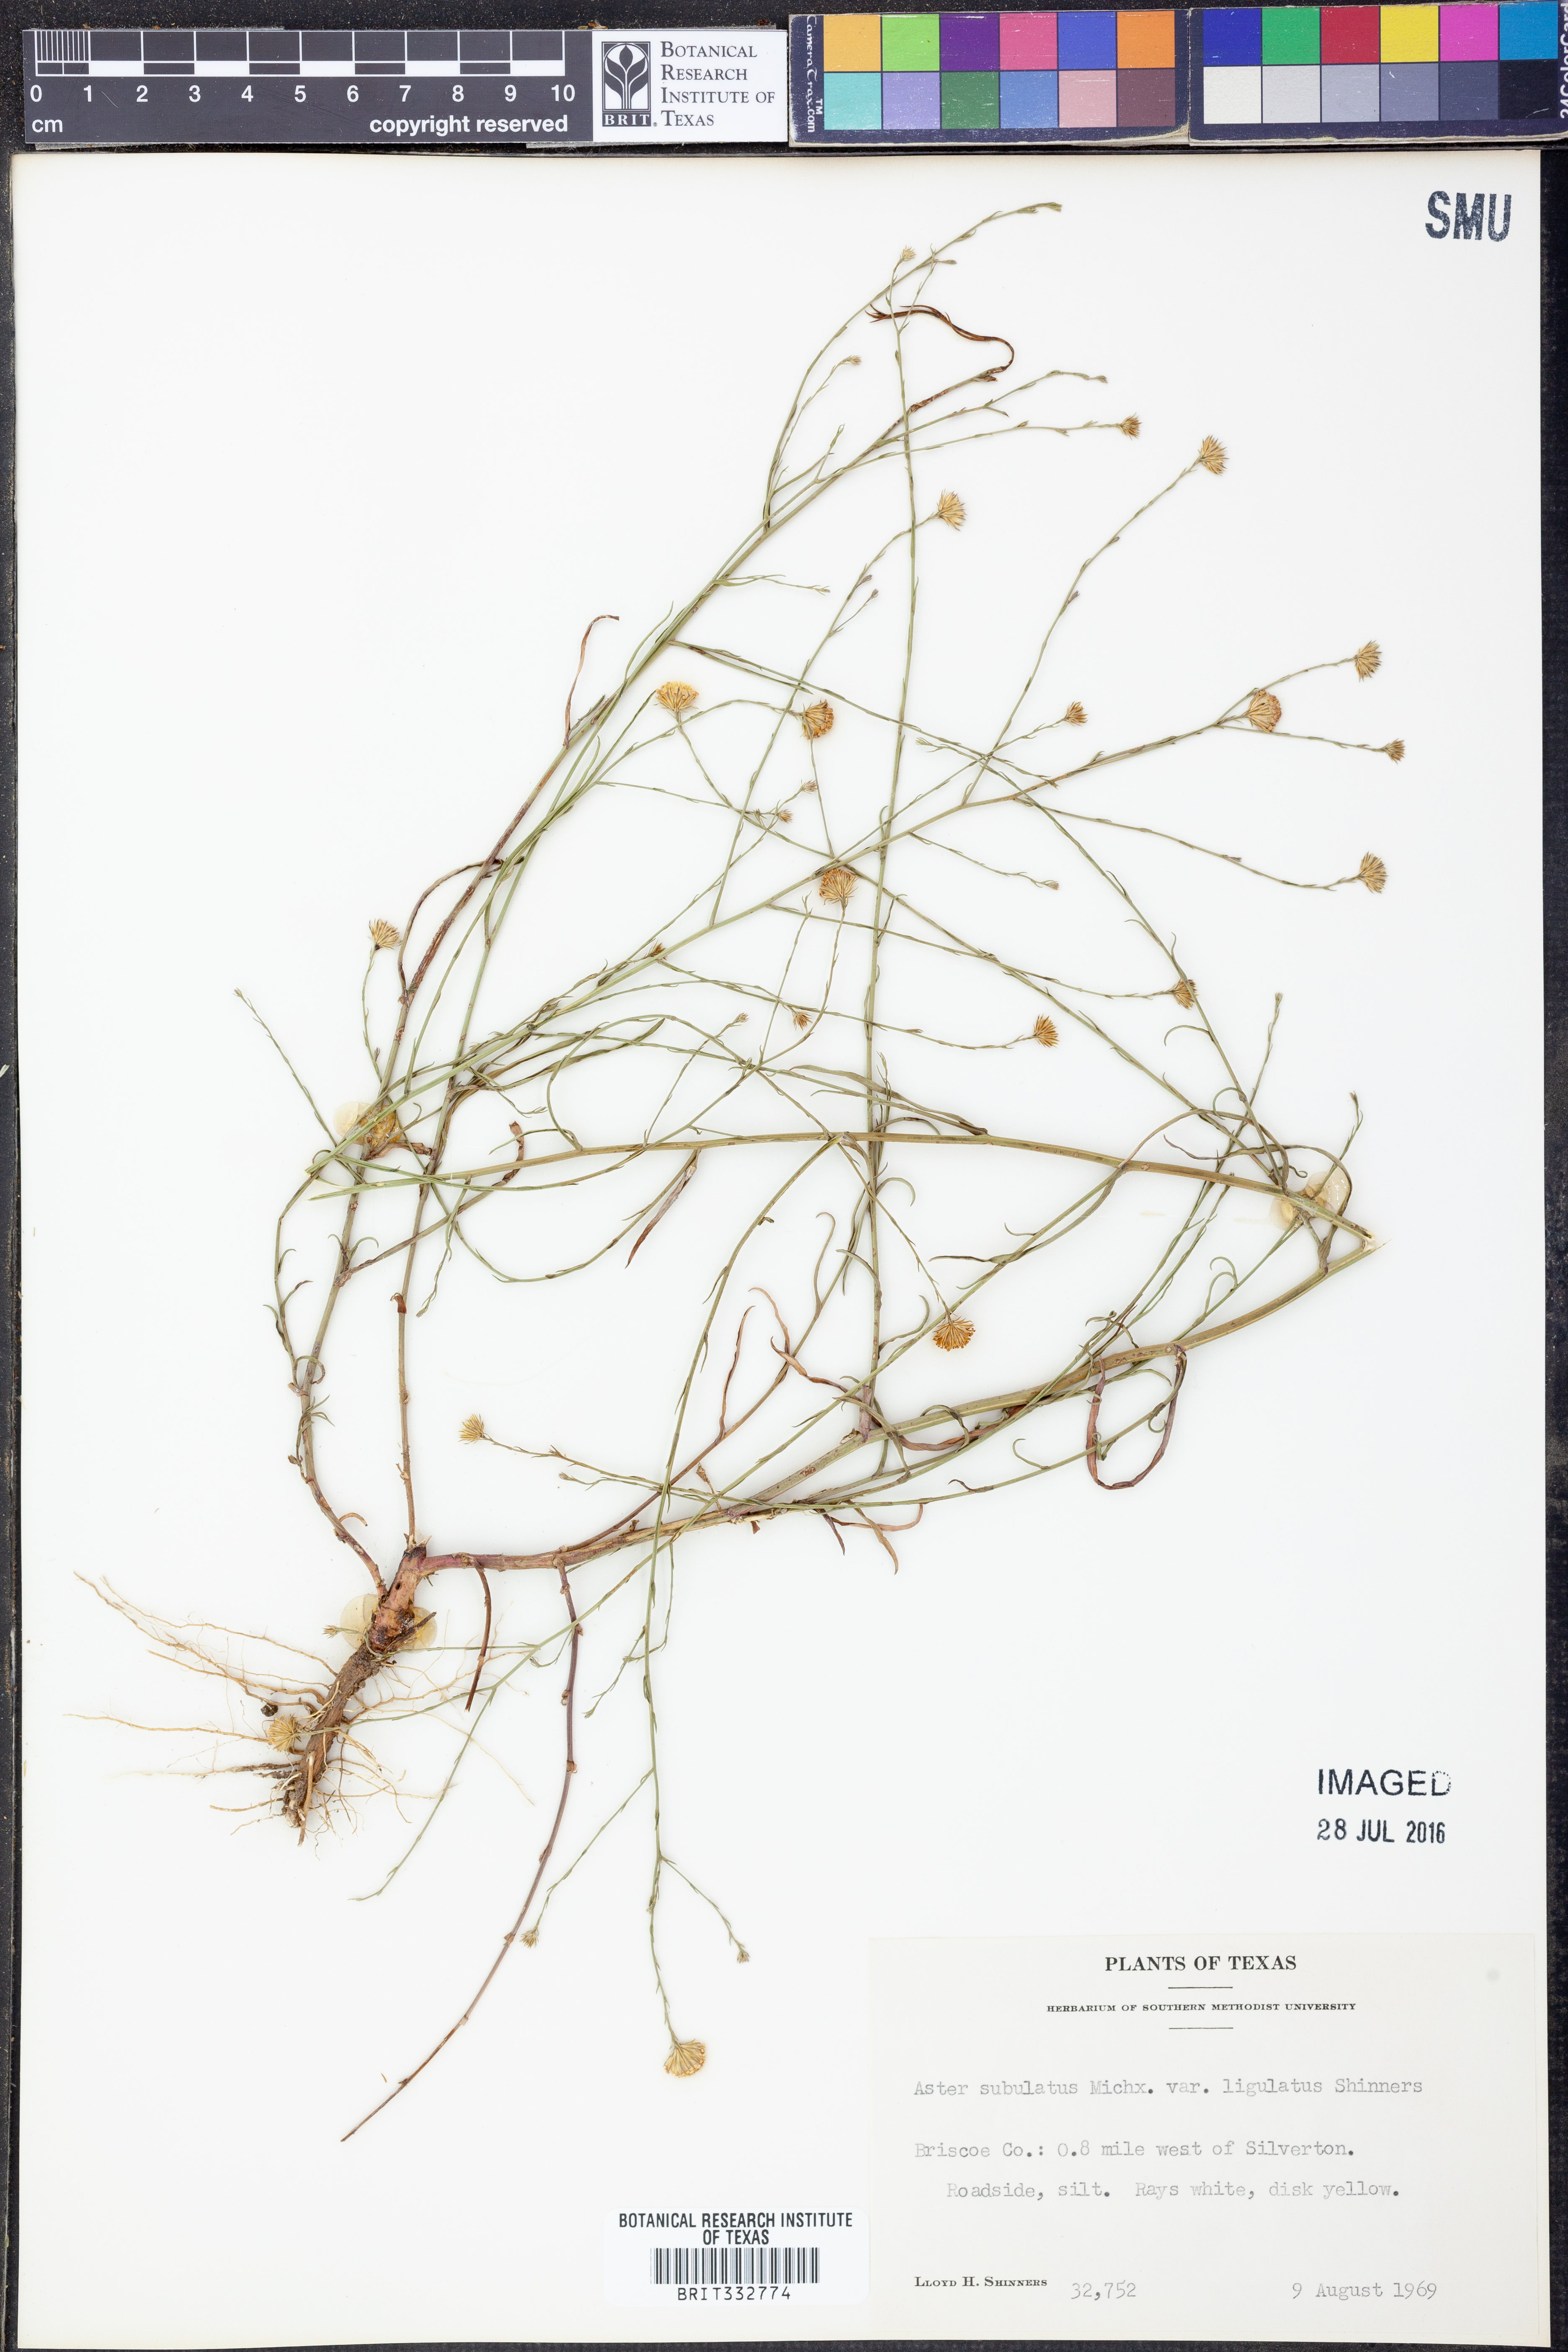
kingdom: Plantae
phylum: Tracheophyta
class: Magnoliopsida
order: Asterales
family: Asteraceae
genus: Symphyotrichum
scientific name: Symphyotrichum divaricatum
